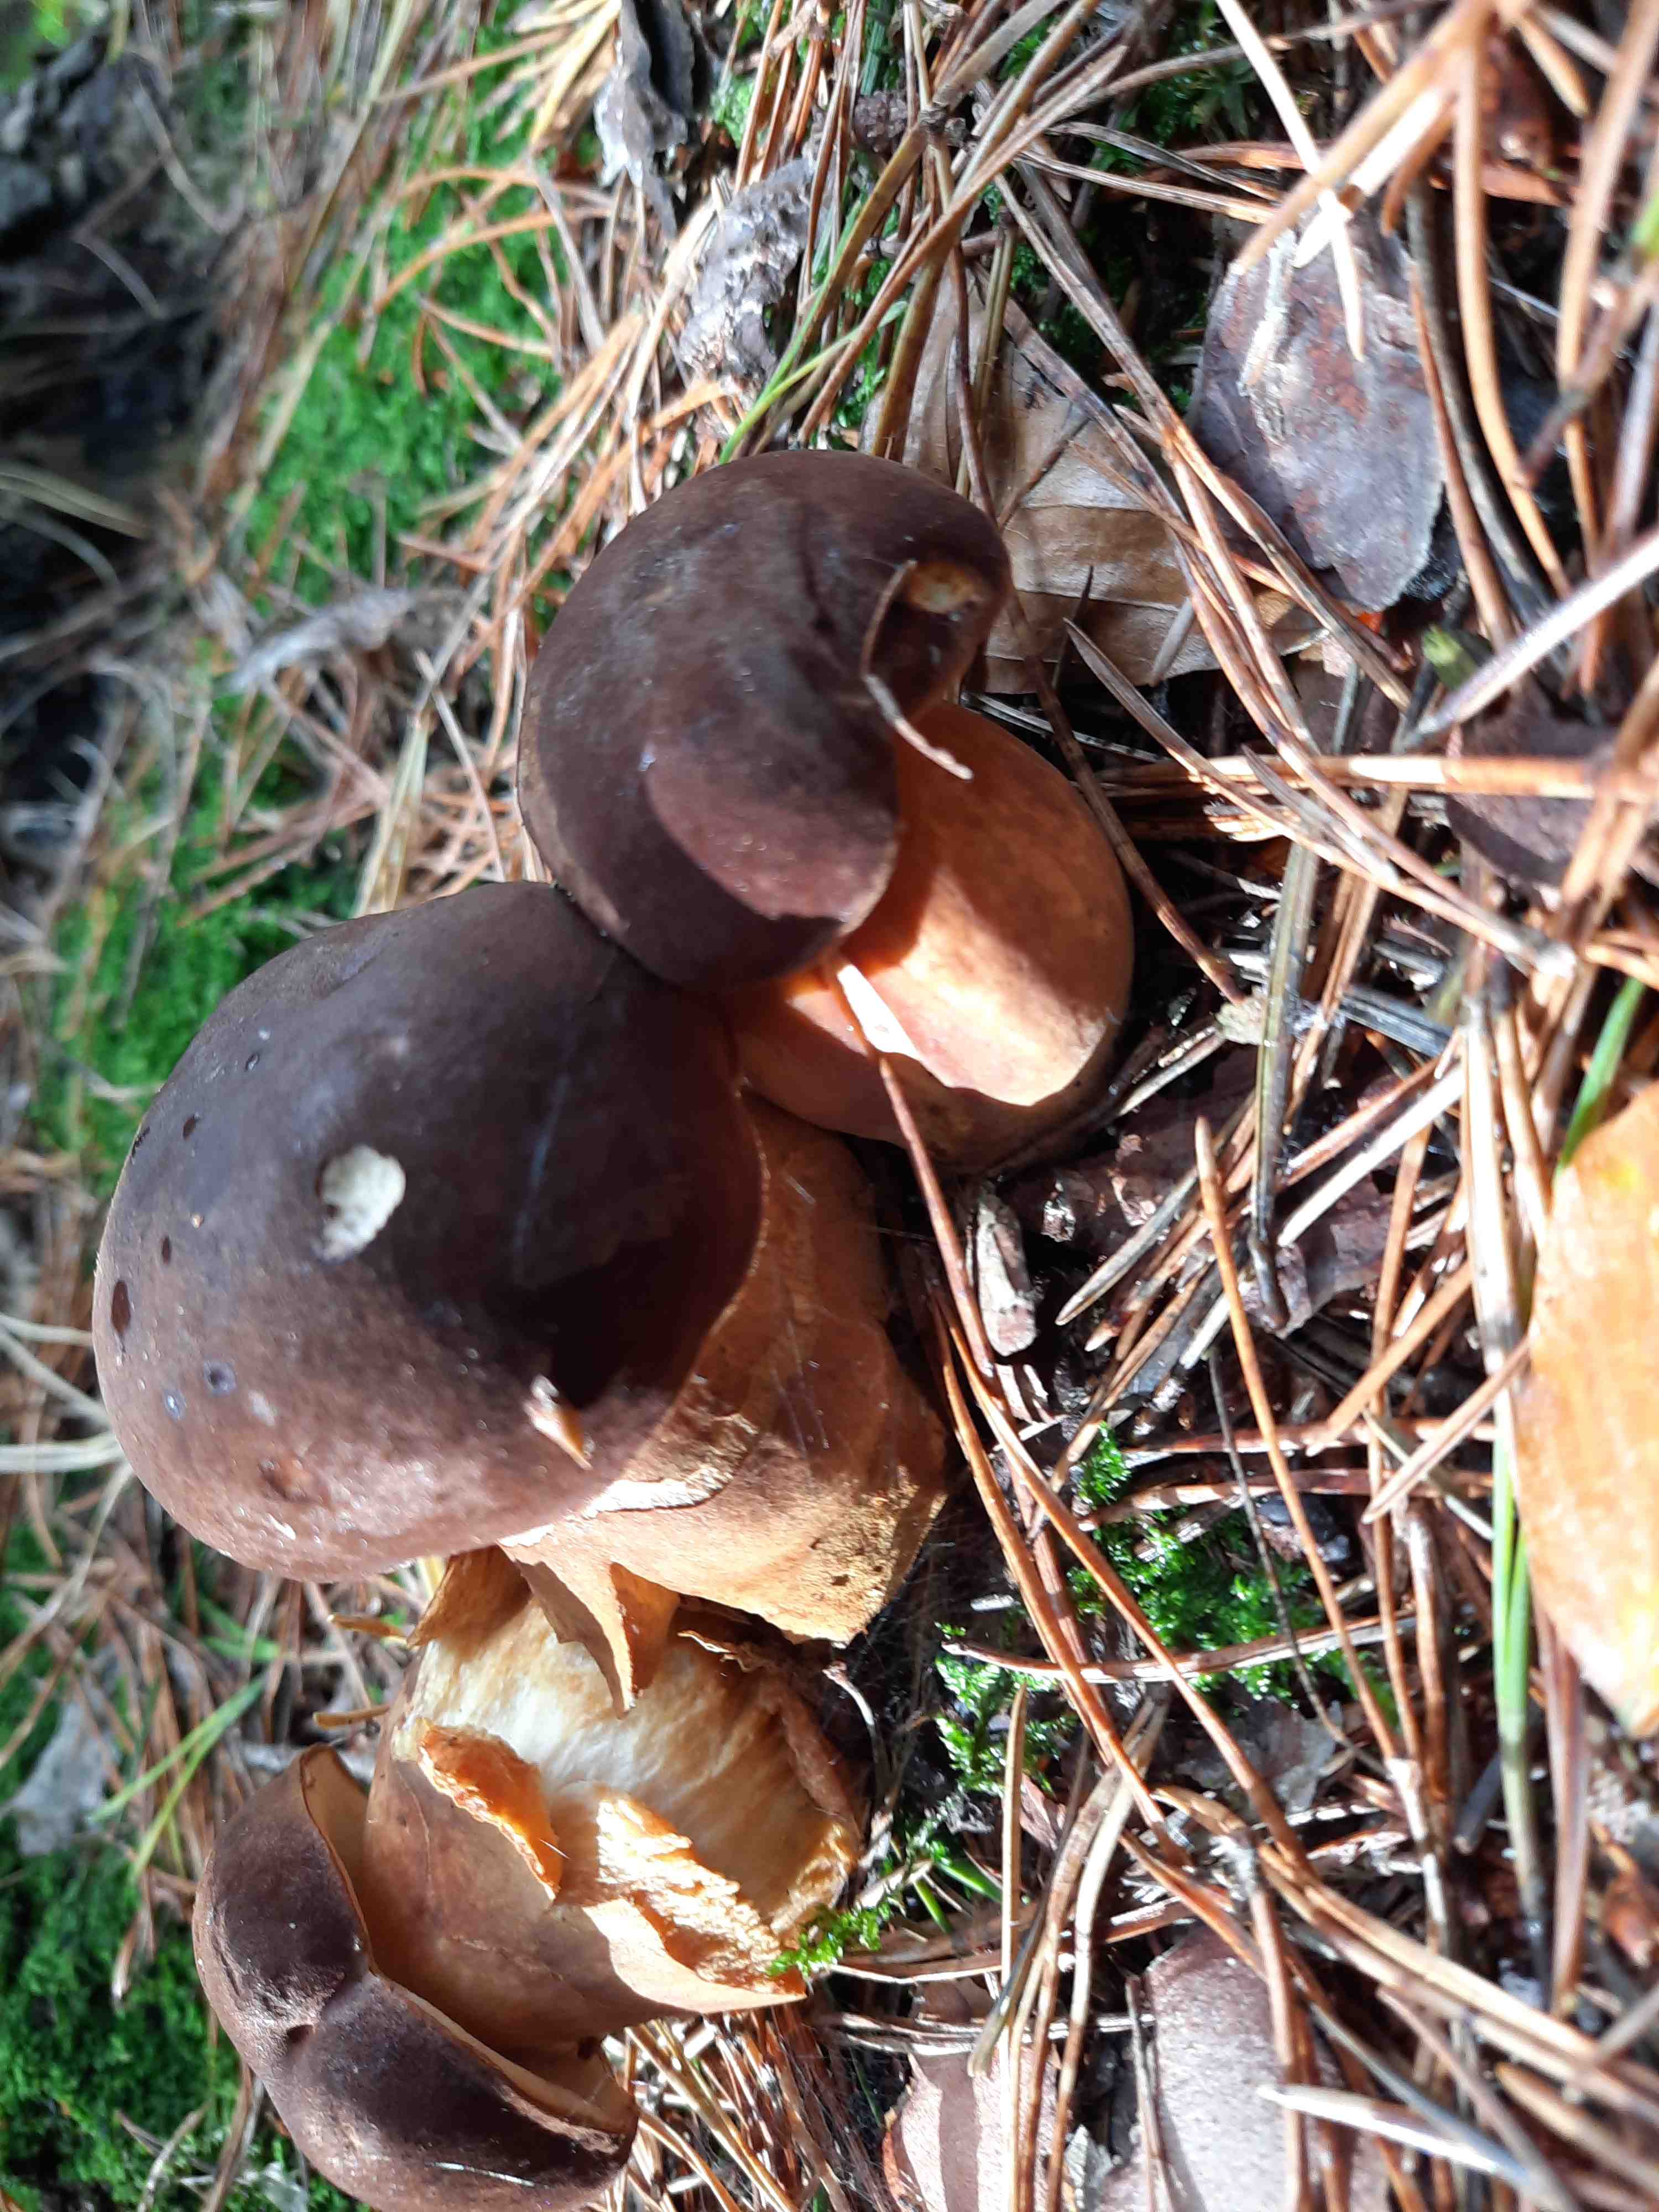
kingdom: Fungi
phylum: Basidiomycota
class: Agaricomycetes
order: Boletales
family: Boletaceae
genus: Imleria
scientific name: Imleria badia
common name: brunstokket rørhat
